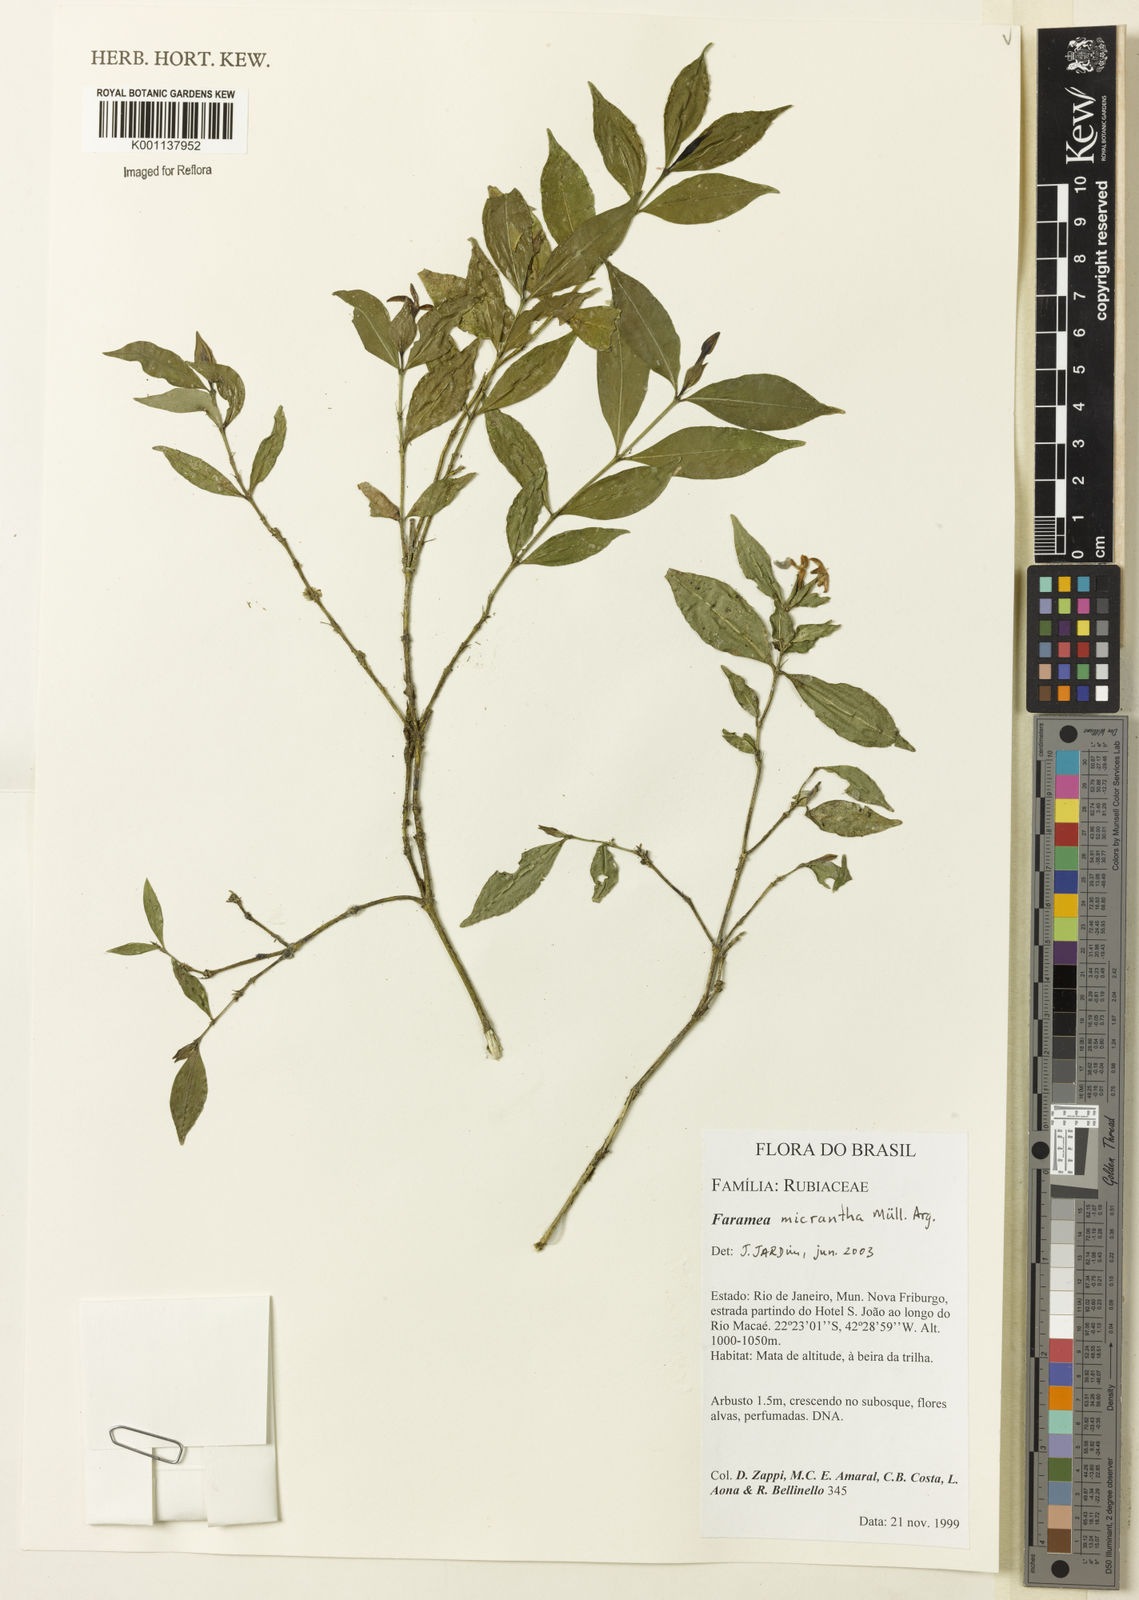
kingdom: Plantae
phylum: Tracheophyta
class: Magnoliopsida
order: Gentianales
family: Rubiaceae
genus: Faramea
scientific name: Faramea
